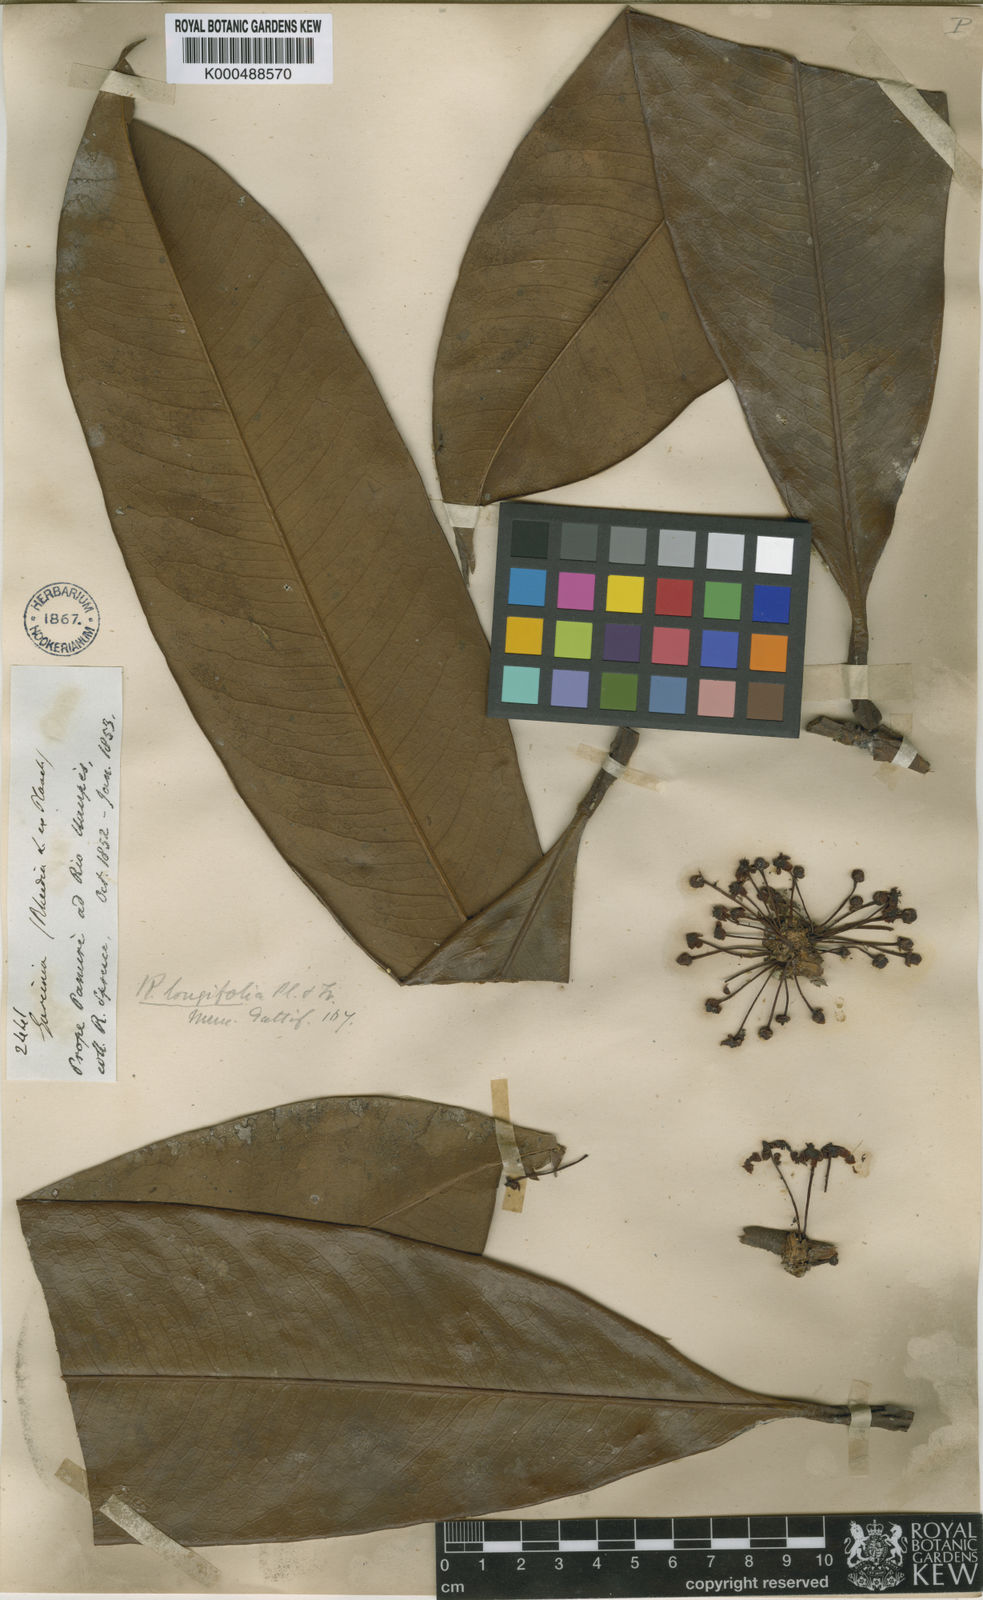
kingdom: Plantae
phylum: Tracheophyta
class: Magnoliopsida
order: Malpighiales
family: Clusiaceae
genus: Garcinia
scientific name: Garcinia longifolia
